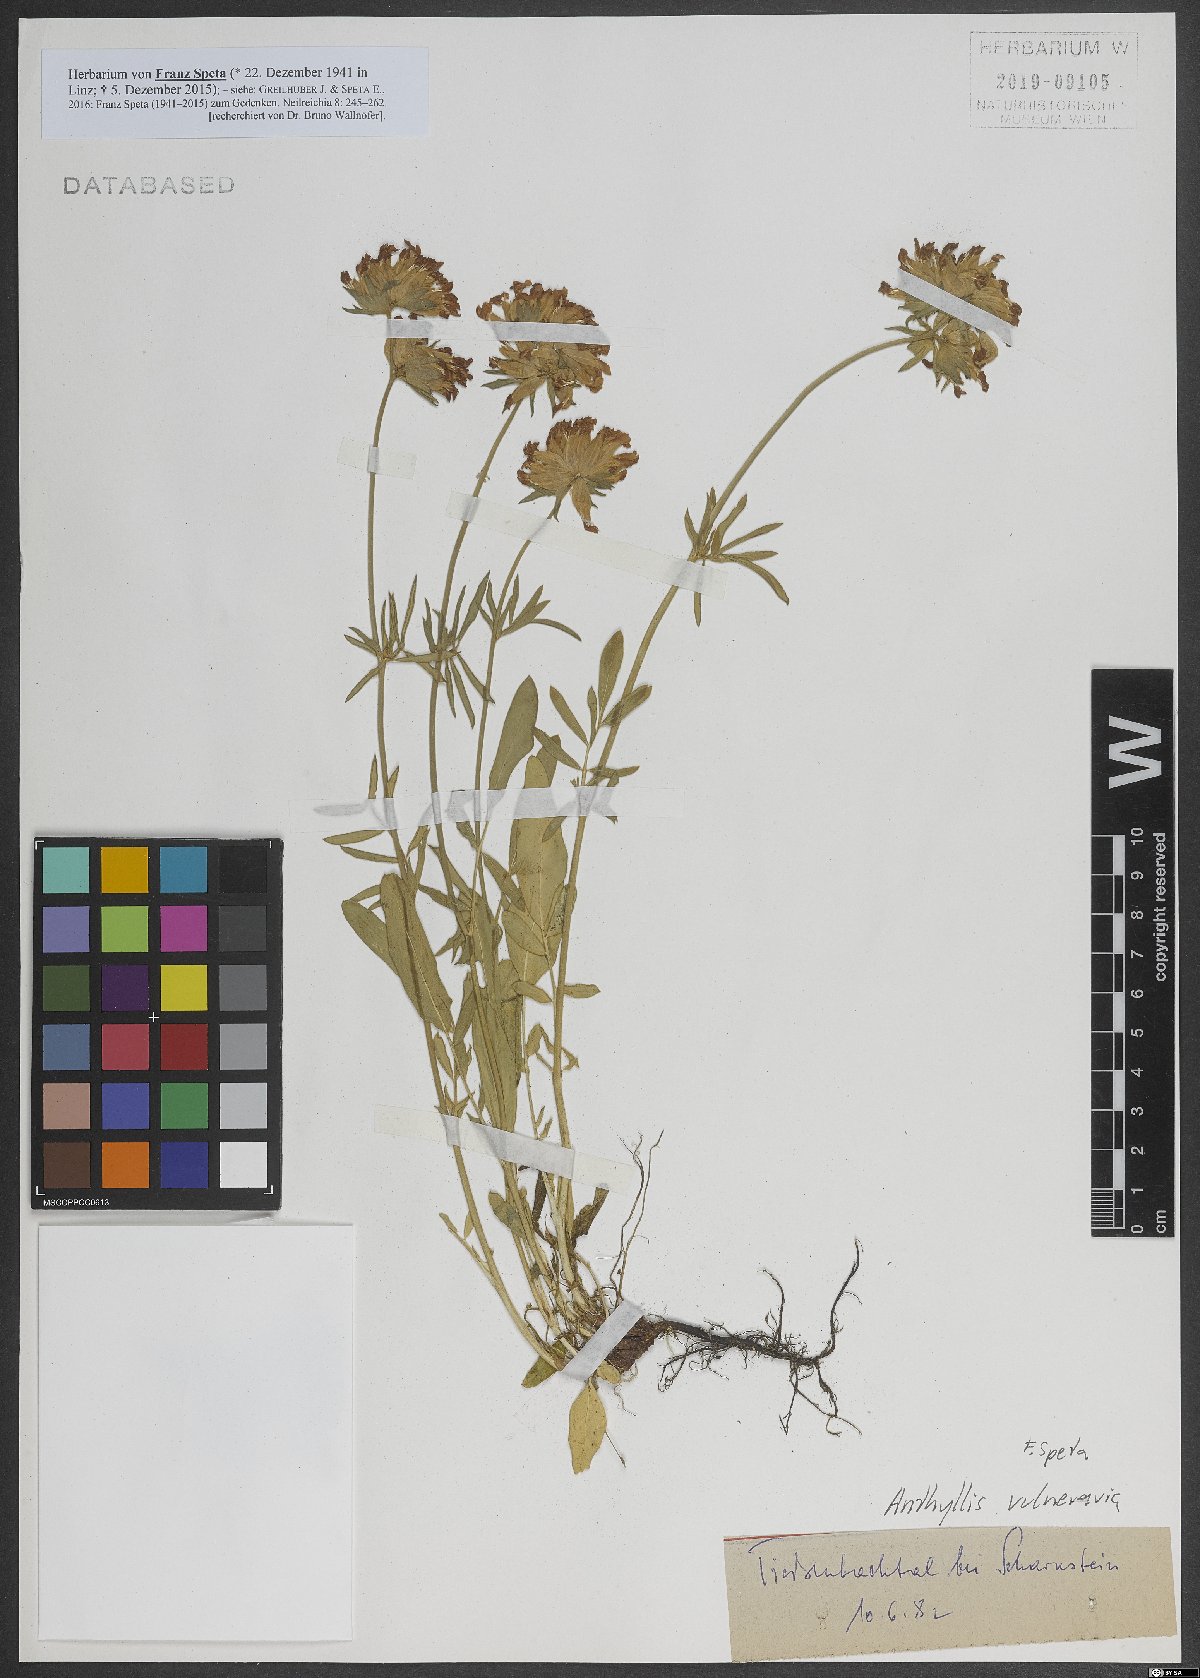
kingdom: Plantae
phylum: Tracheophyta
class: Magnoliopsida
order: Fabales
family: Fabaceae
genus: Anthyllis
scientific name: Anthyllis vulneraria
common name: Kidney vetch
